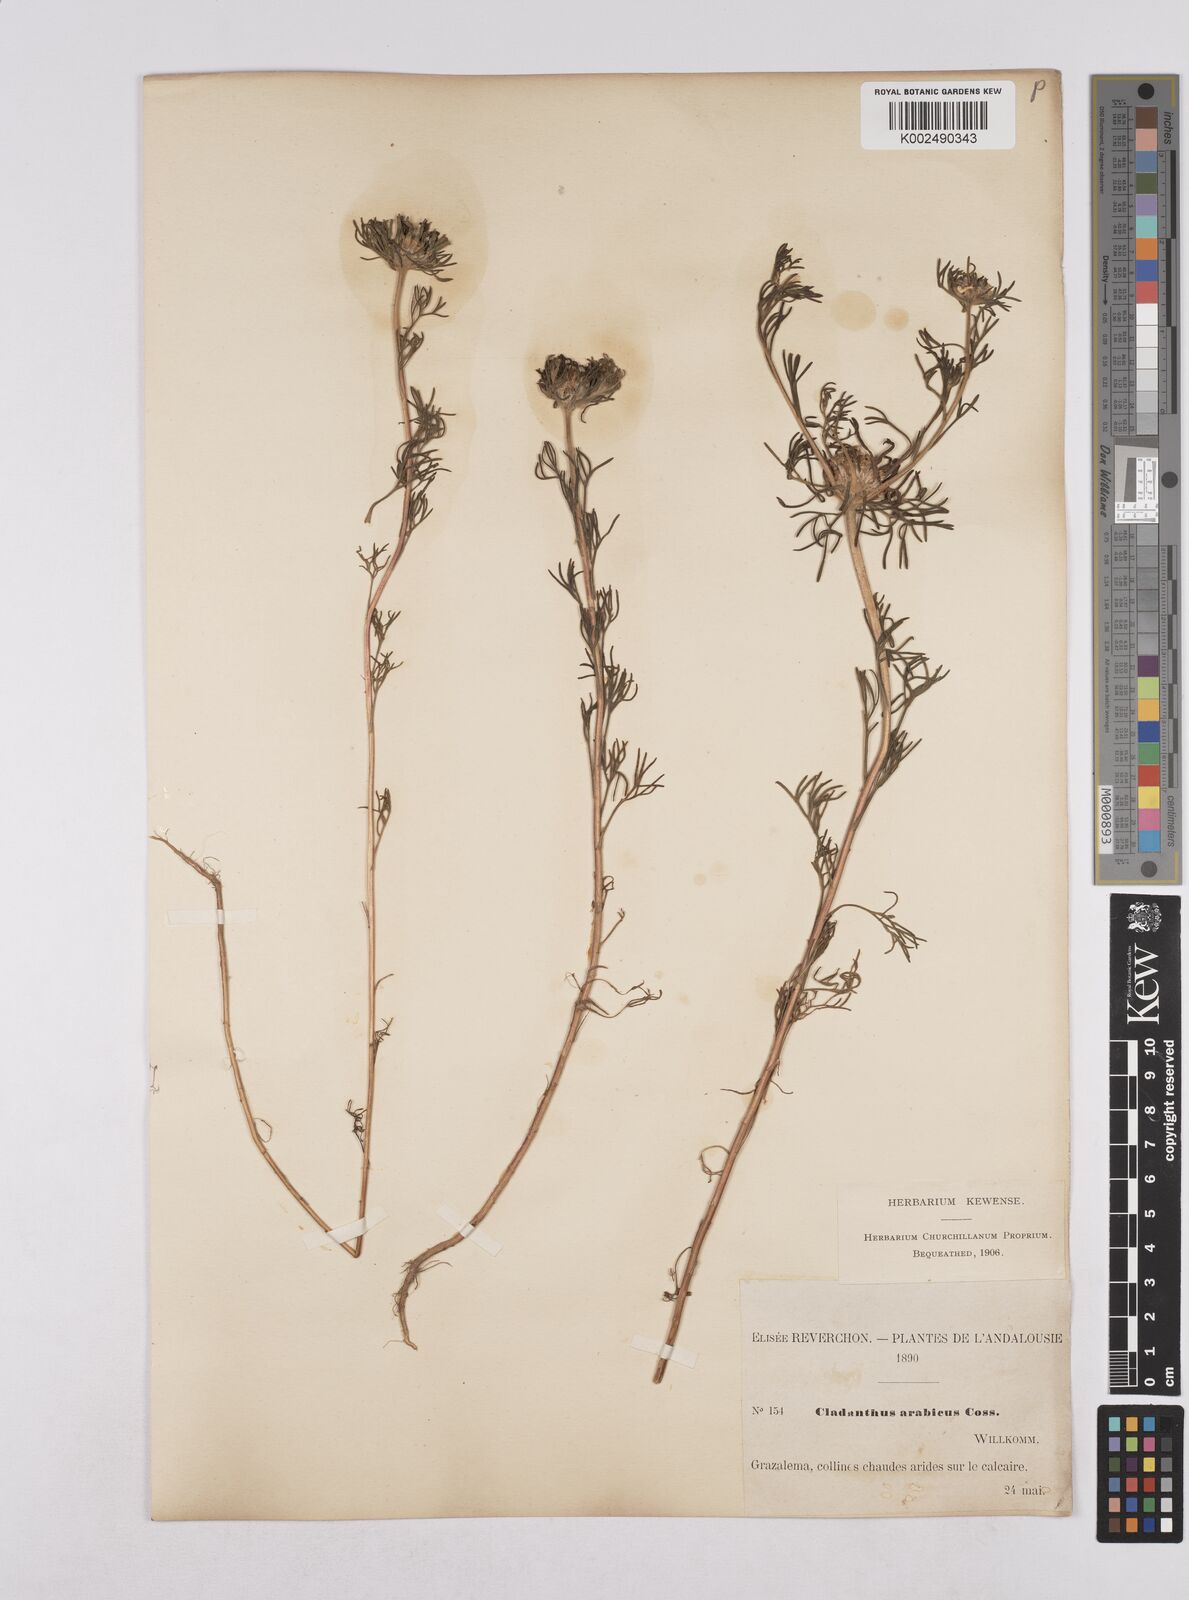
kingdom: Plantae
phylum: Tracheophyta
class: Magnoliopsida
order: Asterales
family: Asteraceae
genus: Cladanthus
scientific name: Cladanthus arabicus
